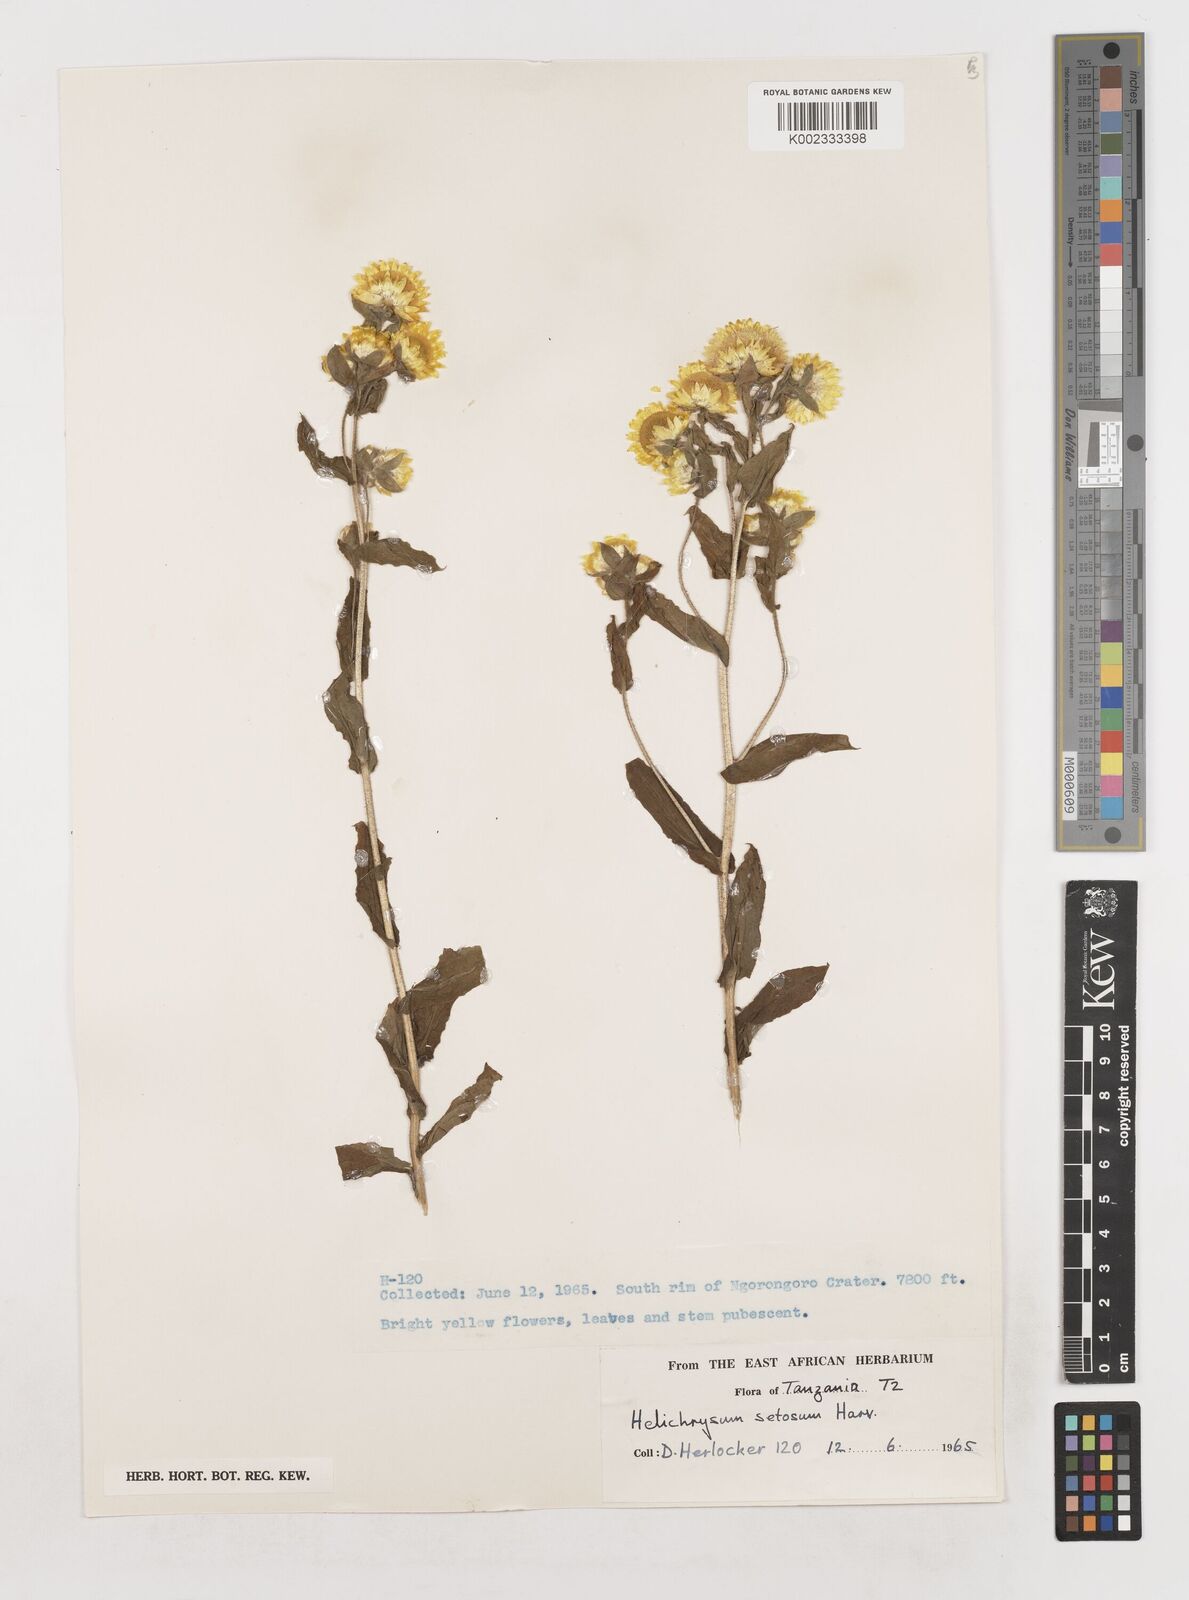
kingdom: Plantae
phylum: Tracheophyta
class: Magnoliopsida
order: Asterales
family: Asteraceae
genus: Helichrysum
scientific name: Helichrysum setosum
